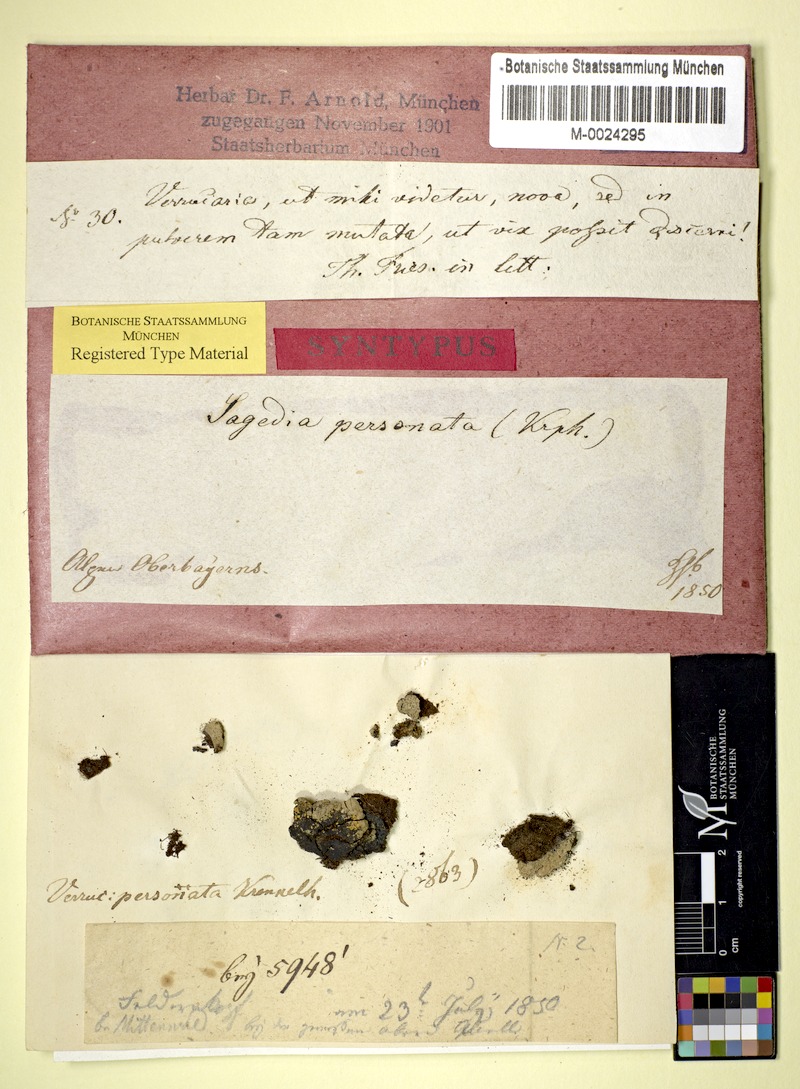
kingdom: Fungi
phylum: Ascomycota
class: Lecanoromycetes
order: Ostropales
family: Porinaceae
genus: Porina
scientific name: Porina personata
